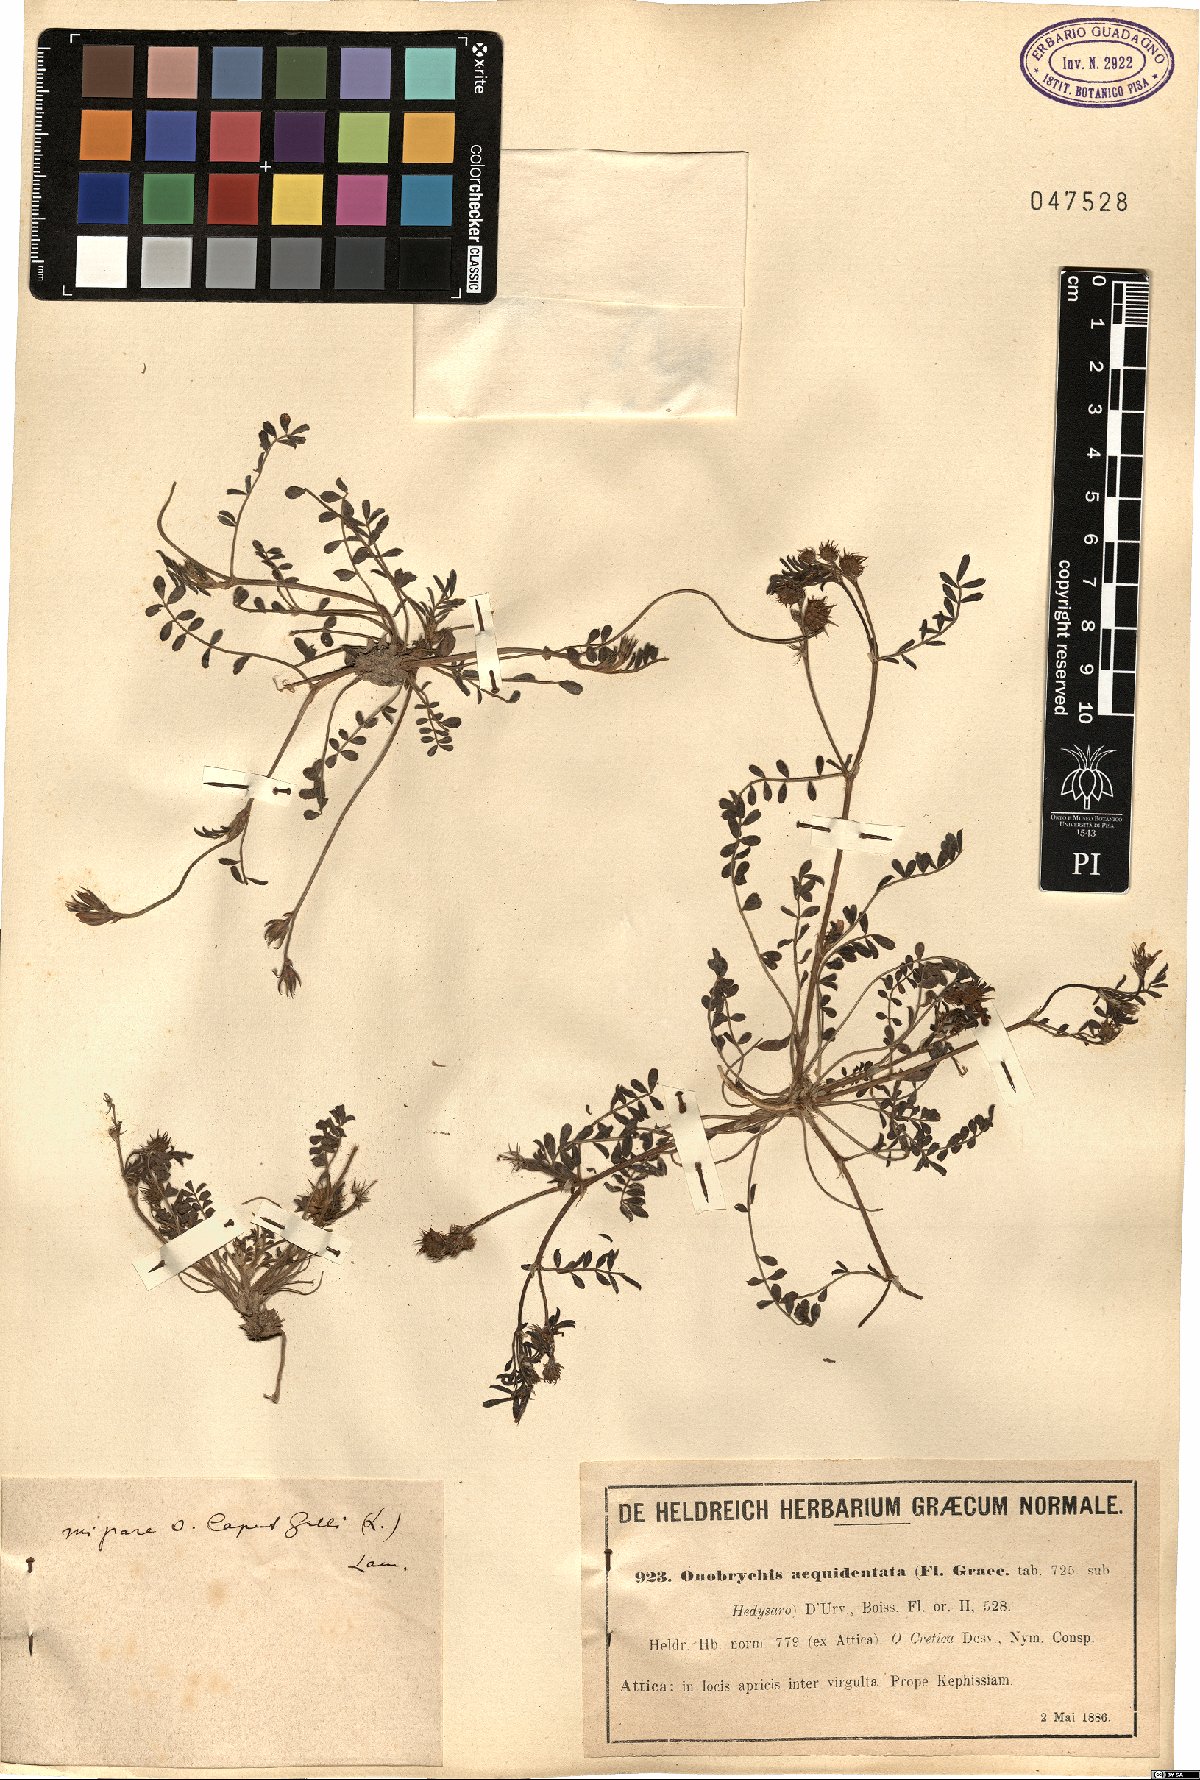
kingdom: Plantae
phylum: Tracheophyta
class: Magnoliopsida
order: Fabales
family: Fabaceae
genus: Onobrychis
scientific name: Onobrychis caput-galli
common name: Cockscomb sainfoin
